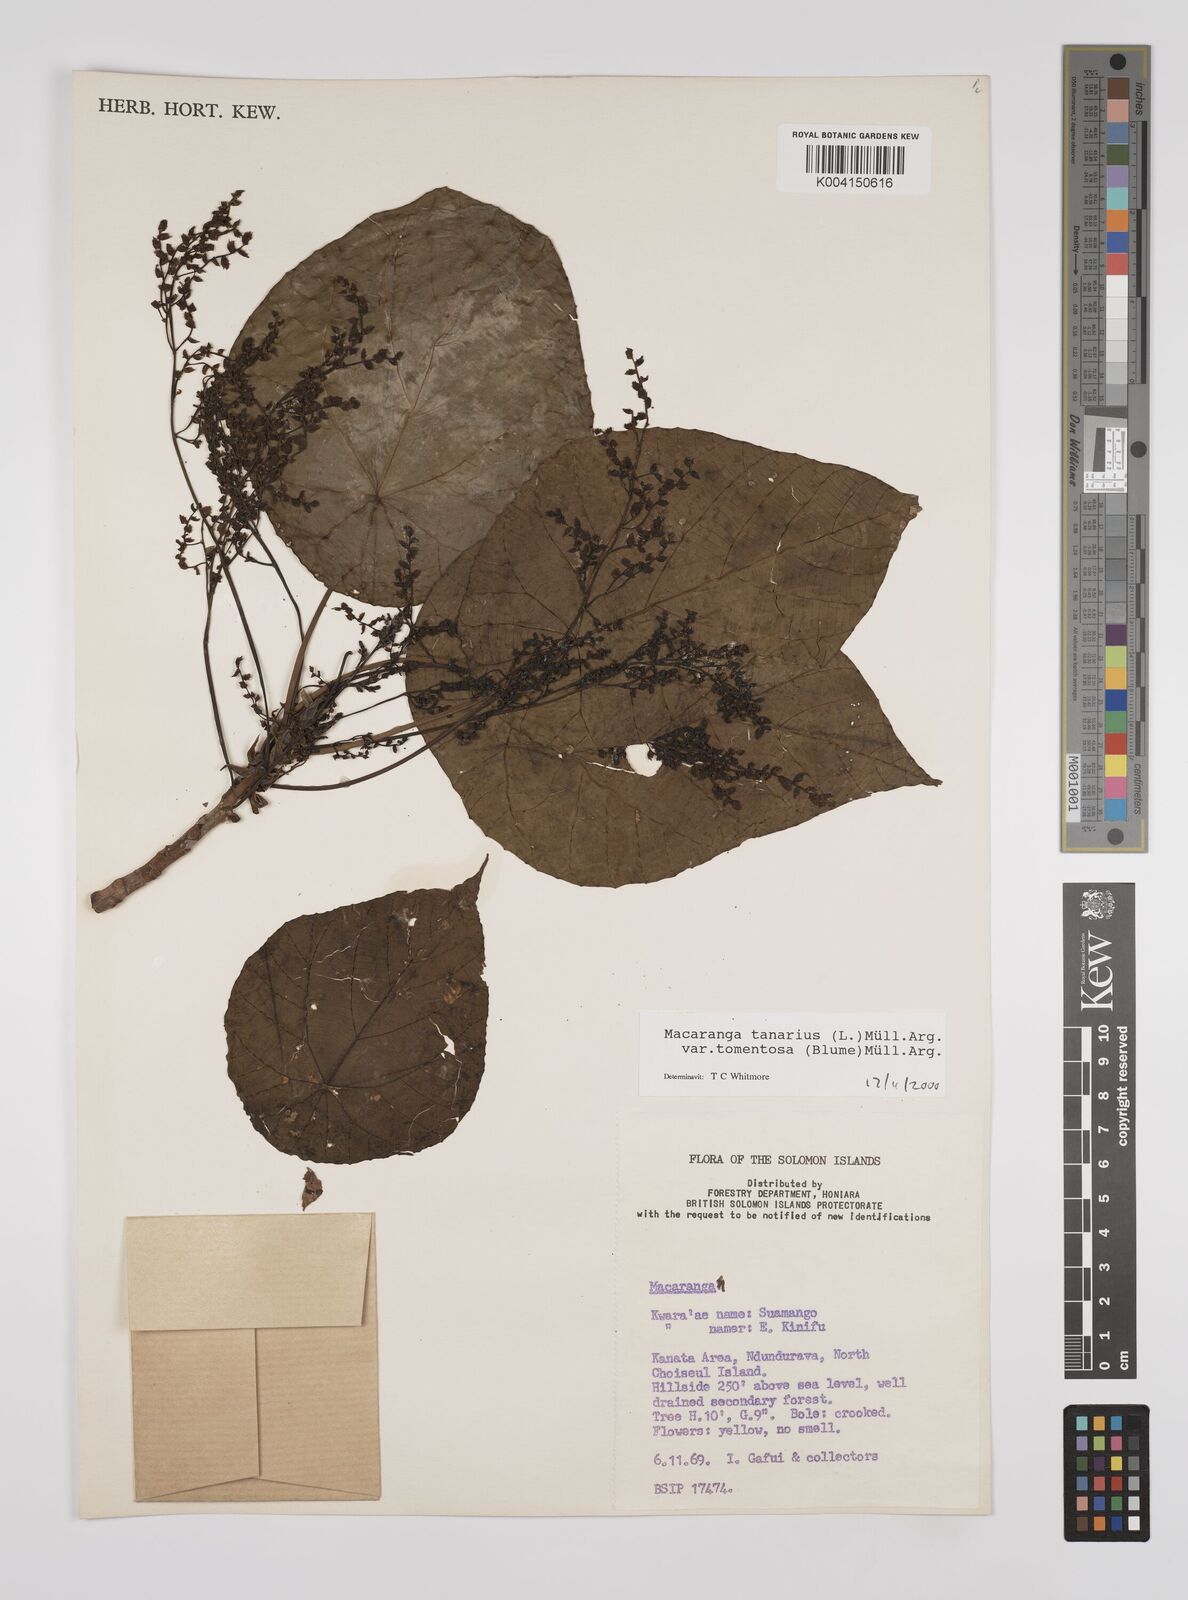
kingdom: Plantae
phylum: Tracheophyta
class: Magnoliopsida
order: Malpighiales
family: Euphorbiaceae
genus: Macaranga
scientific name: Macaranga tanarius
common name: Parasol leaf tree
